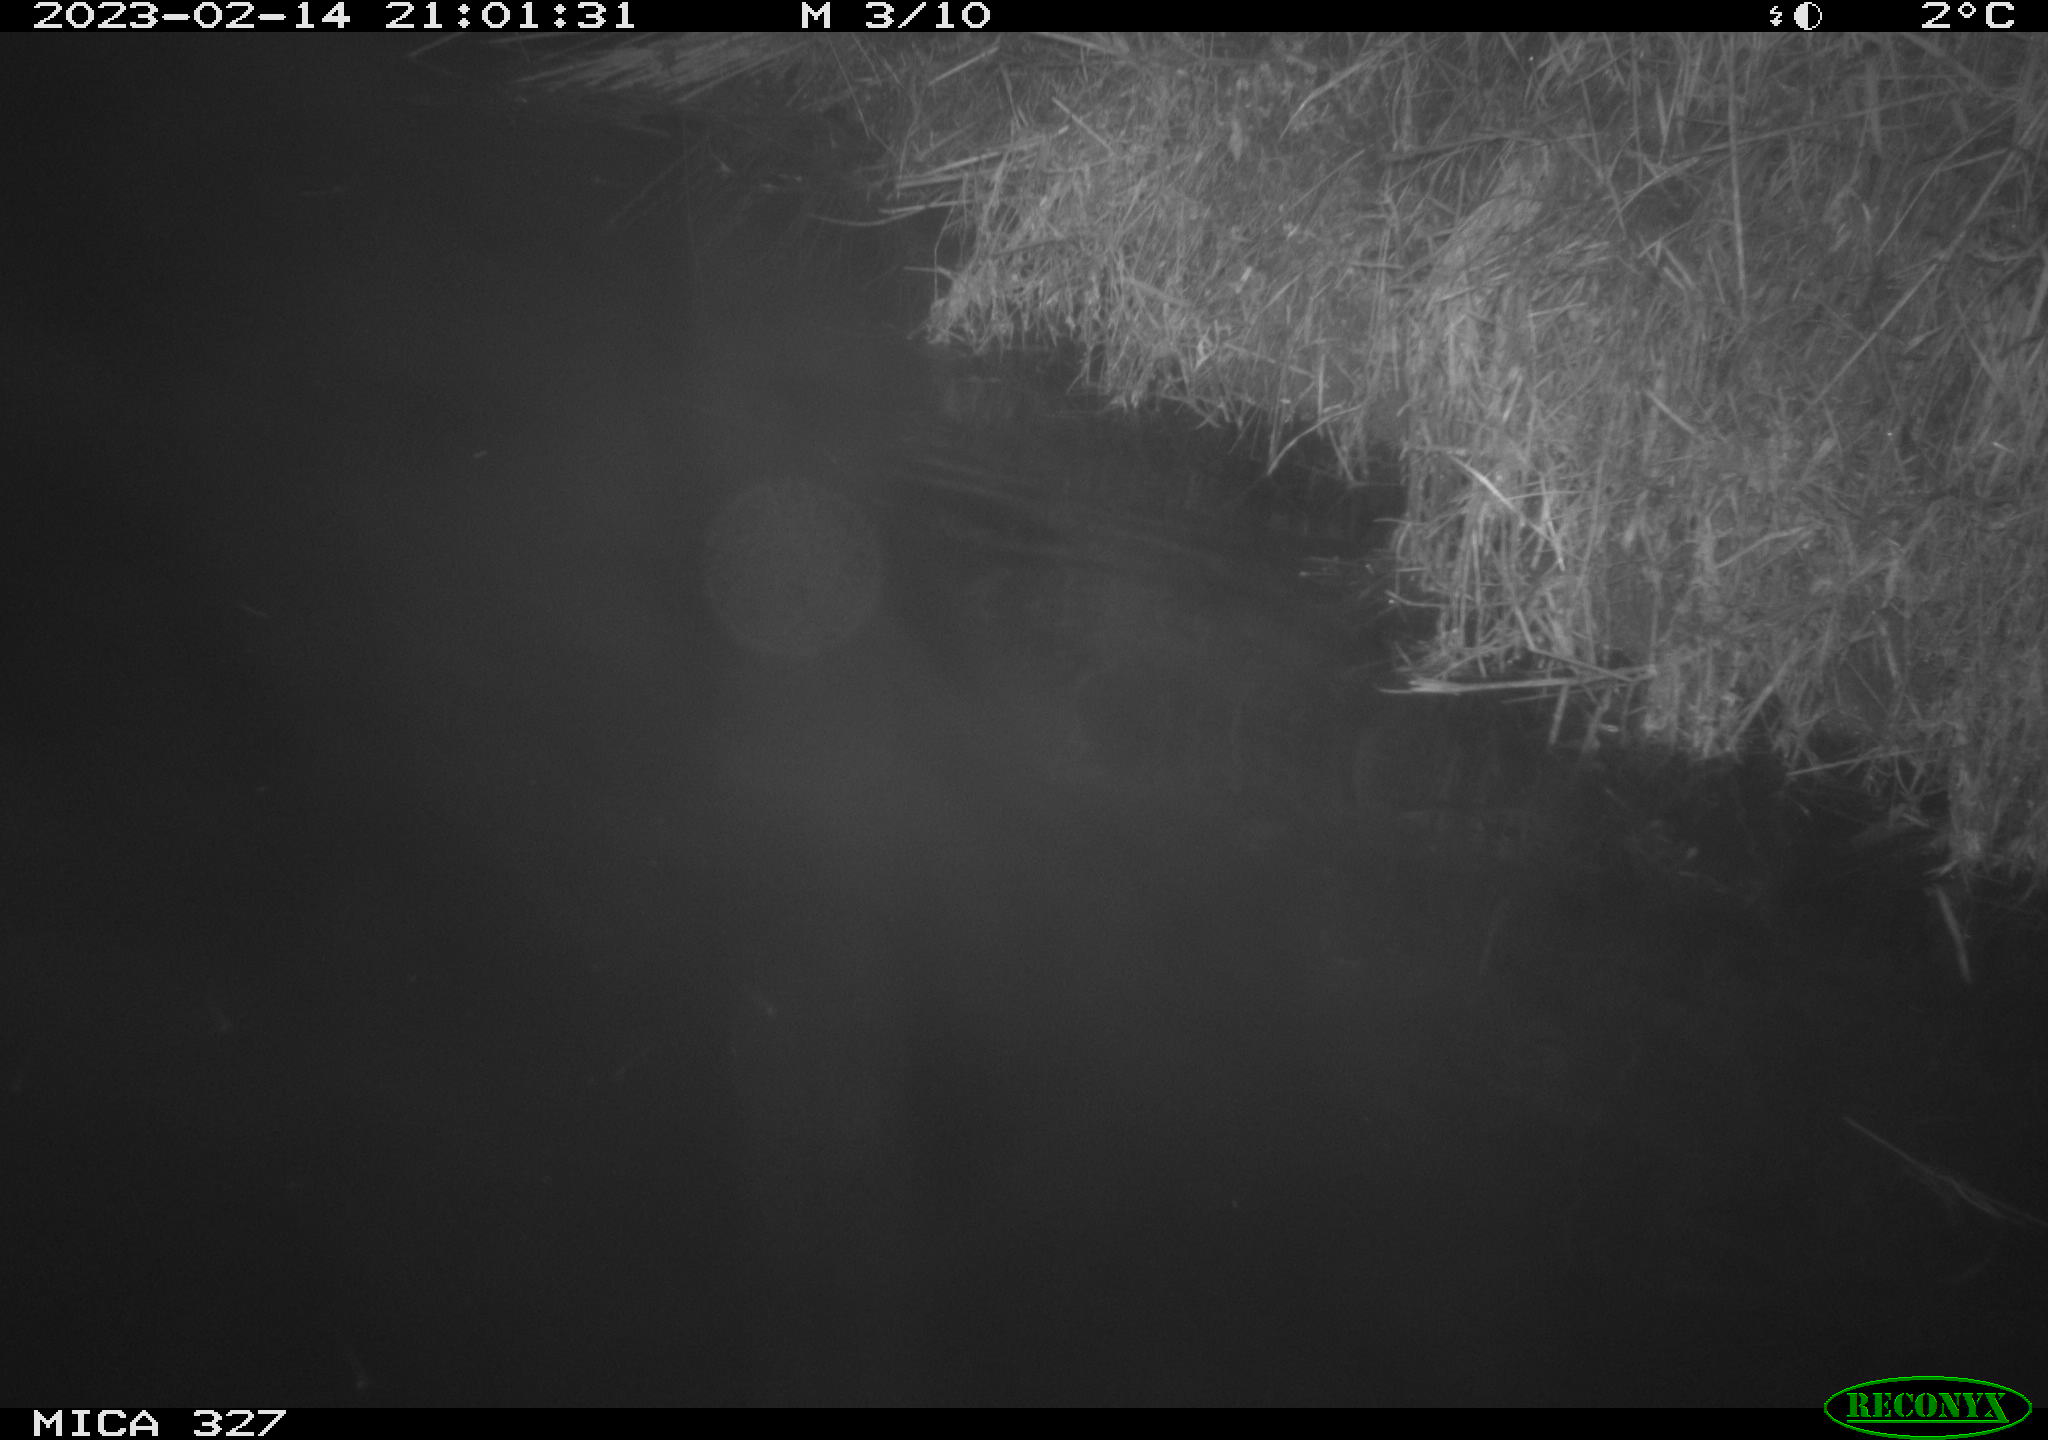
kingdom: Animalia
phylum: Chordata
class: Mammalia
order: Rodentia
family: Cricetidae
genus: Ondatra
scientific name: Ondatra zibethicus
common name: Muskrat
